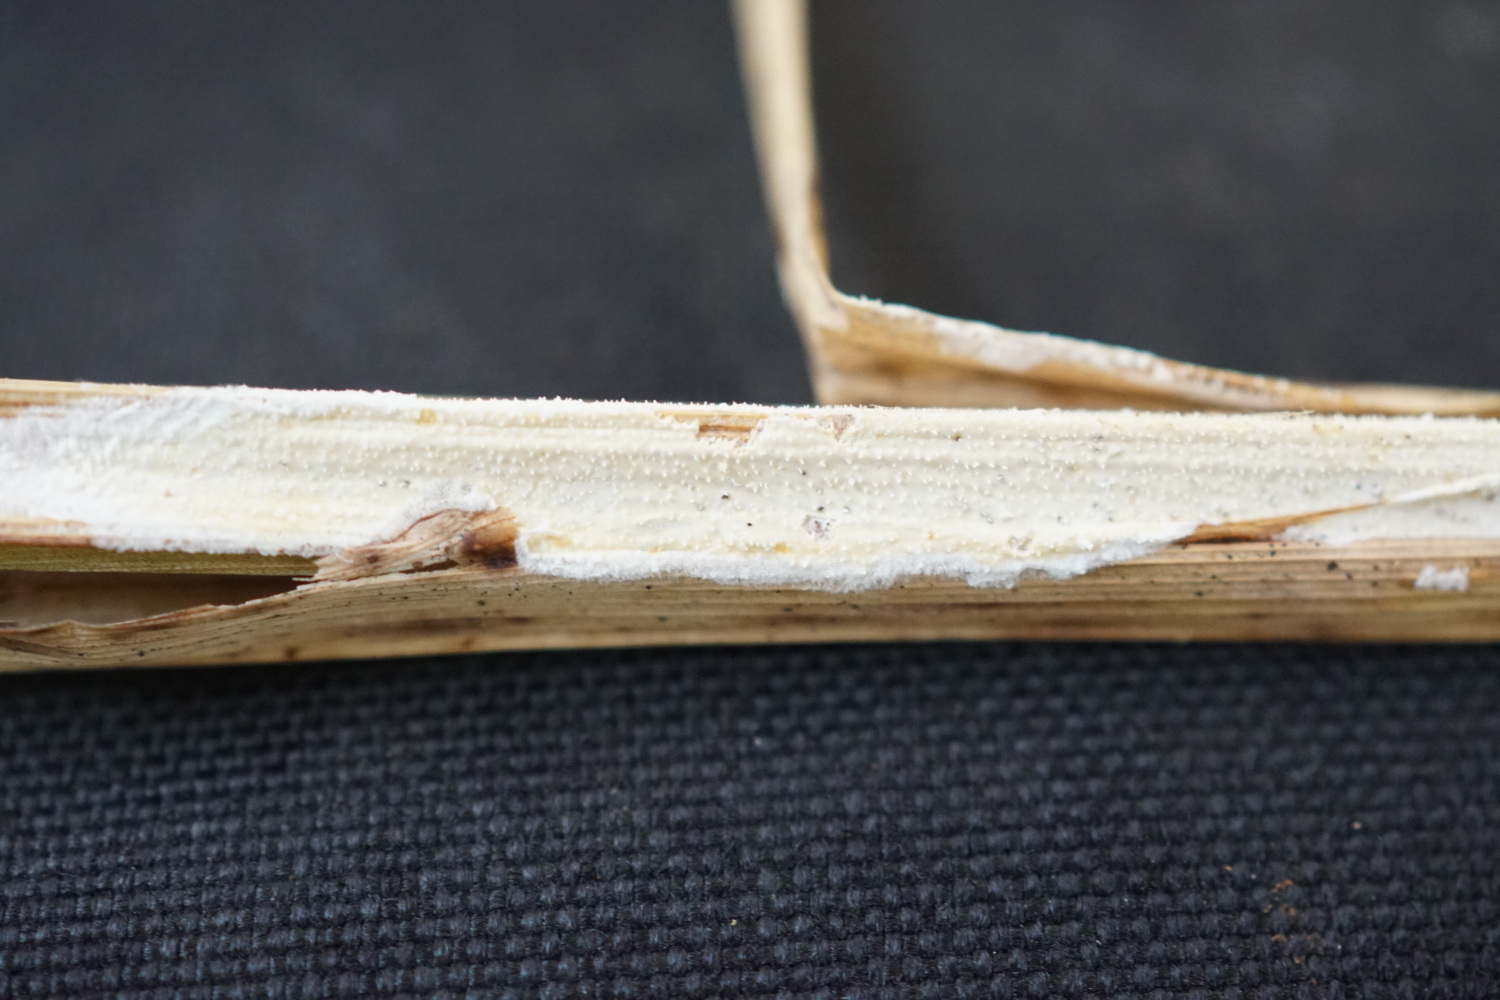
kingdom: Fungi
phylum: Basidiomycota
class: Agaricomycetes
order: Polyporales
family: Polyporaceae
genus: Epithele
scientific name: Epithele typhae
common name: starpig
